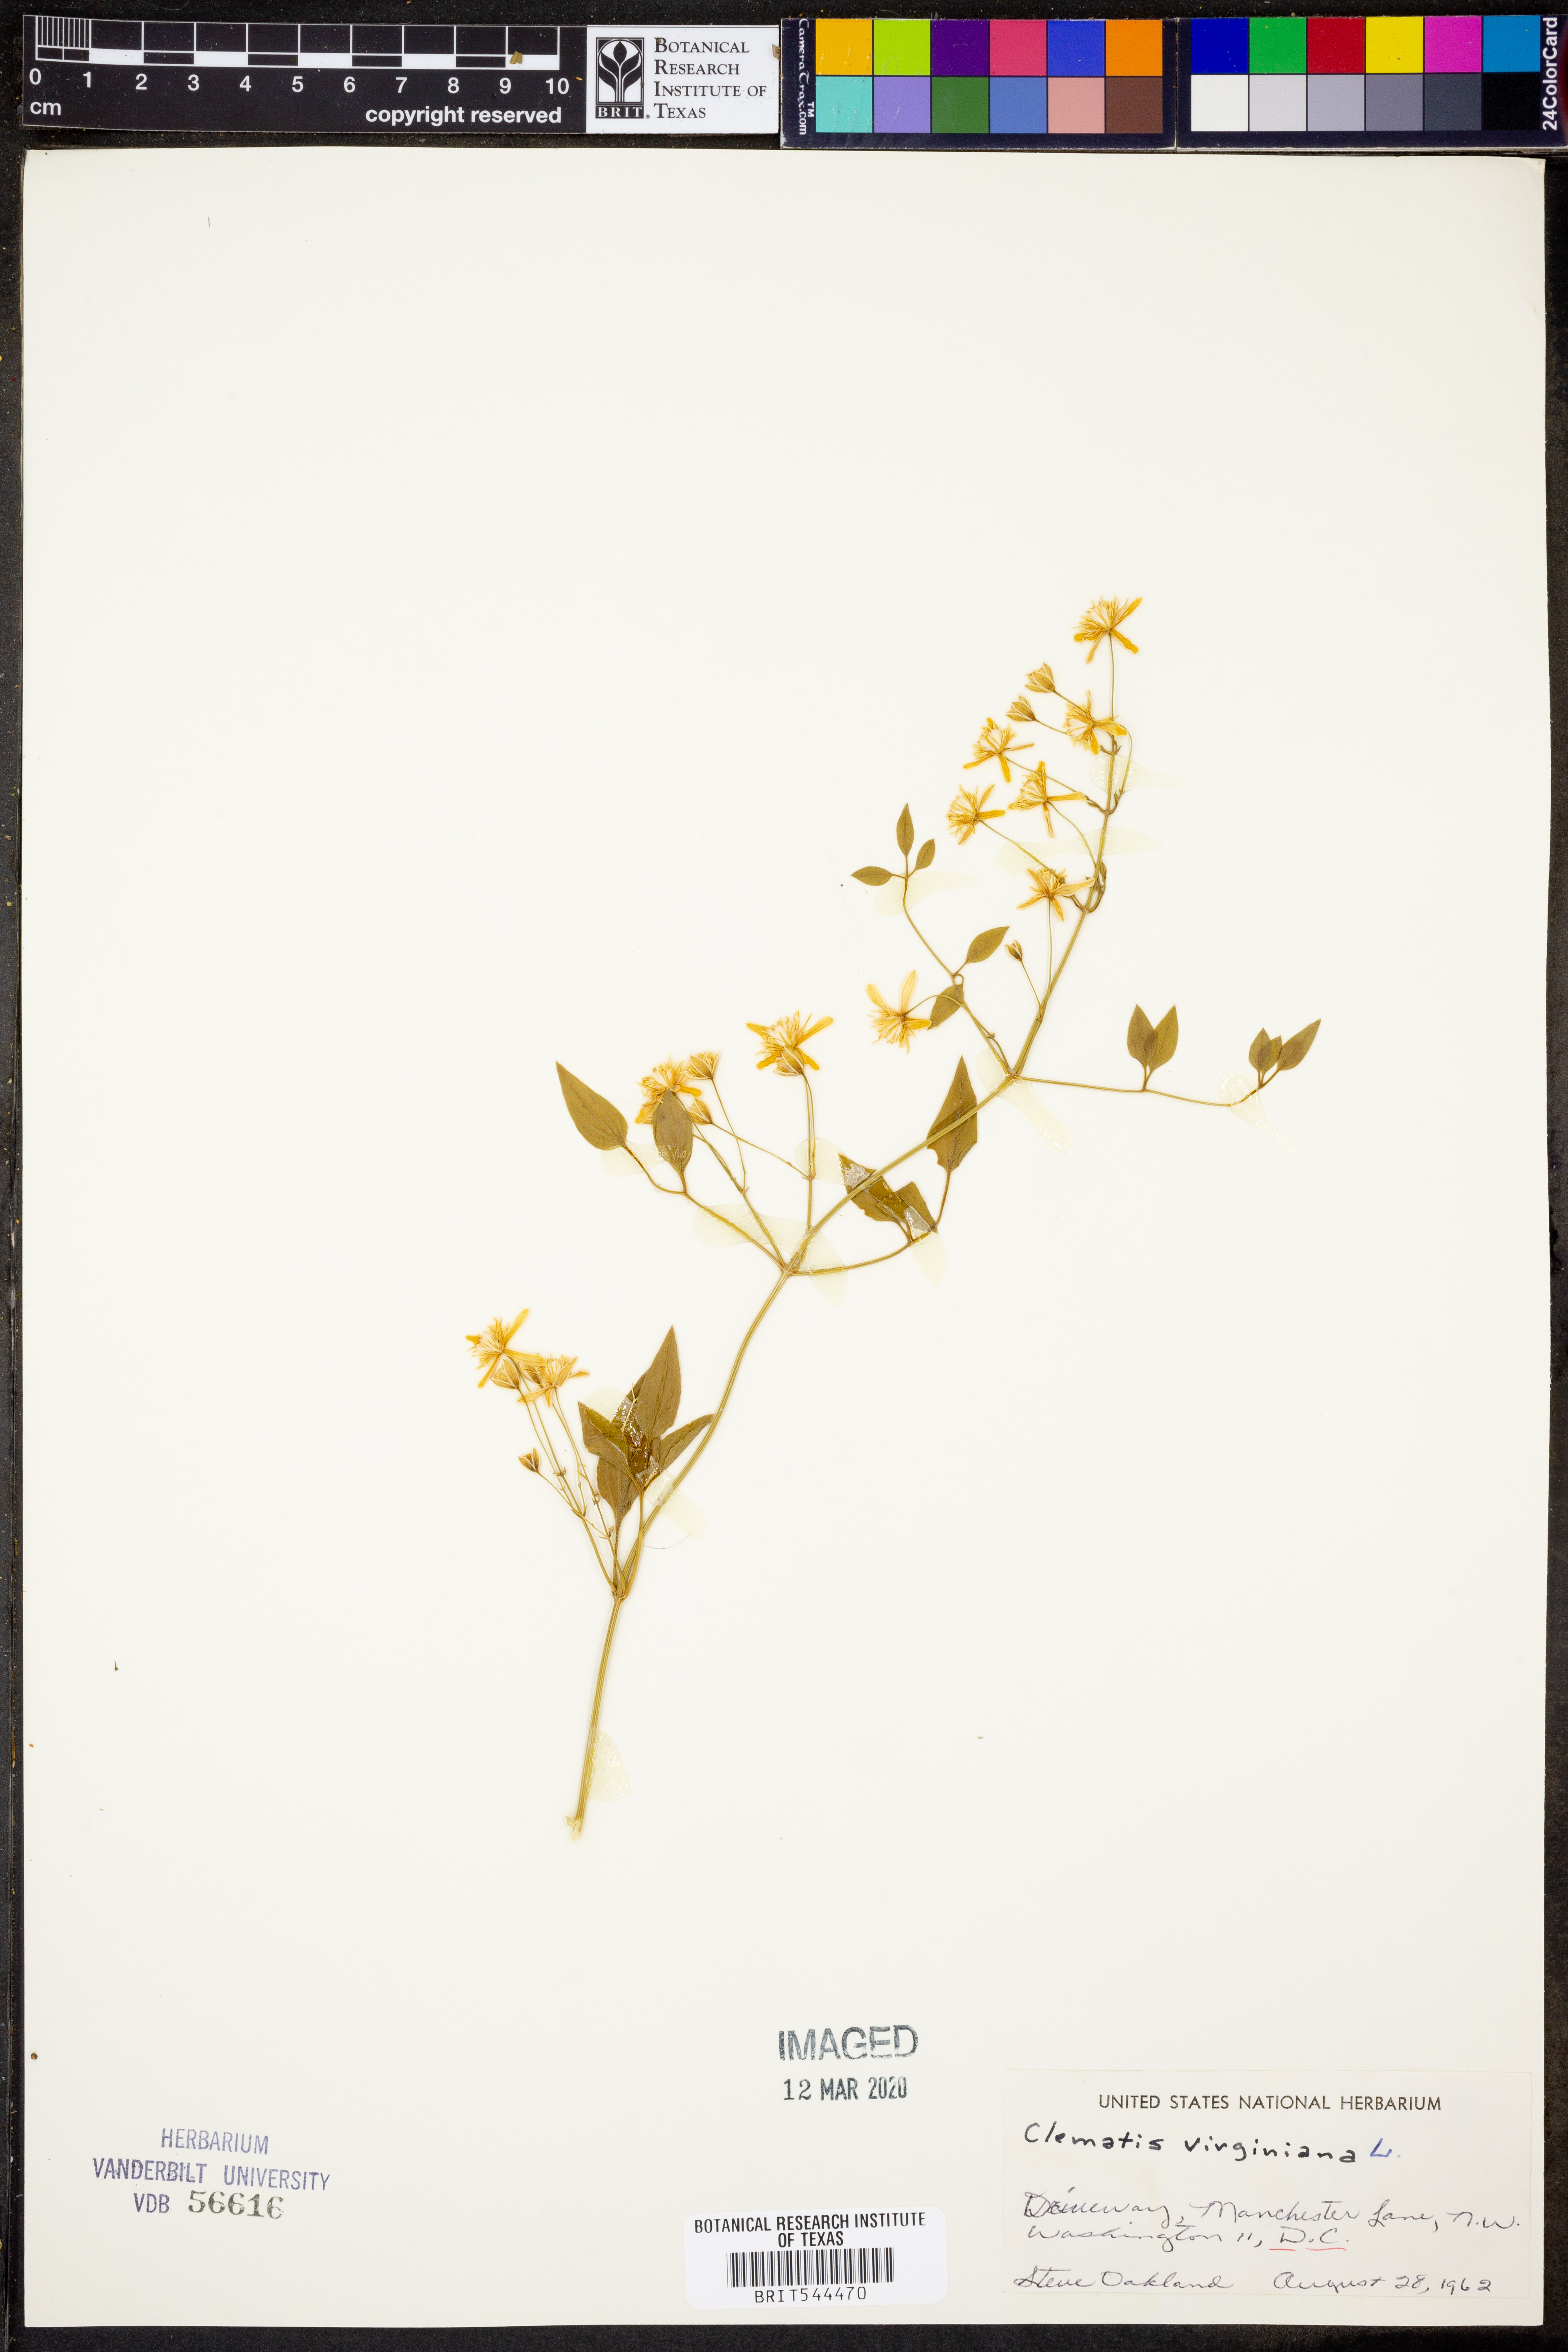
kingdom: Plantae
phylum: Tracheophyta
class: Magnoliopsida
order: Ranunculales
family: Ranunculaceae
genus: Clematis
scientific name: Clematis virginiana
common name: Virgin's-bower
